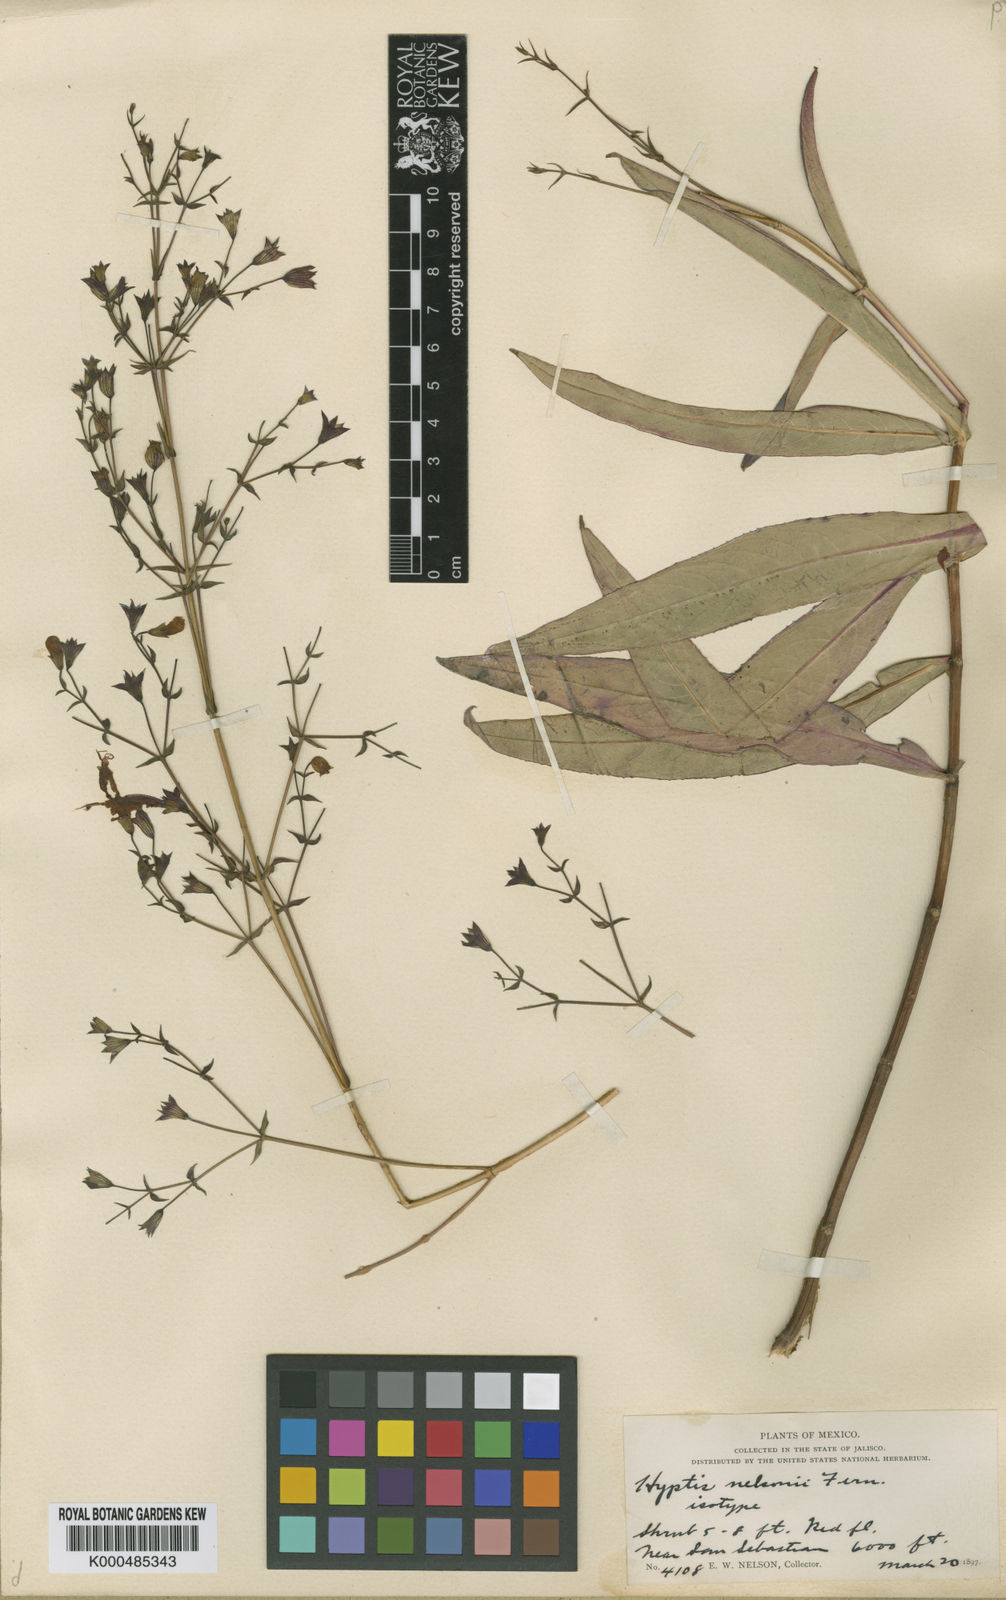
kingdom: Plantae
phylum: Tracheophyta
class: Magnoliopsida
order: Lamiales
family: Lamiaceae
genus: Lepechinia
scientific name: Lepechinia nelsonii
